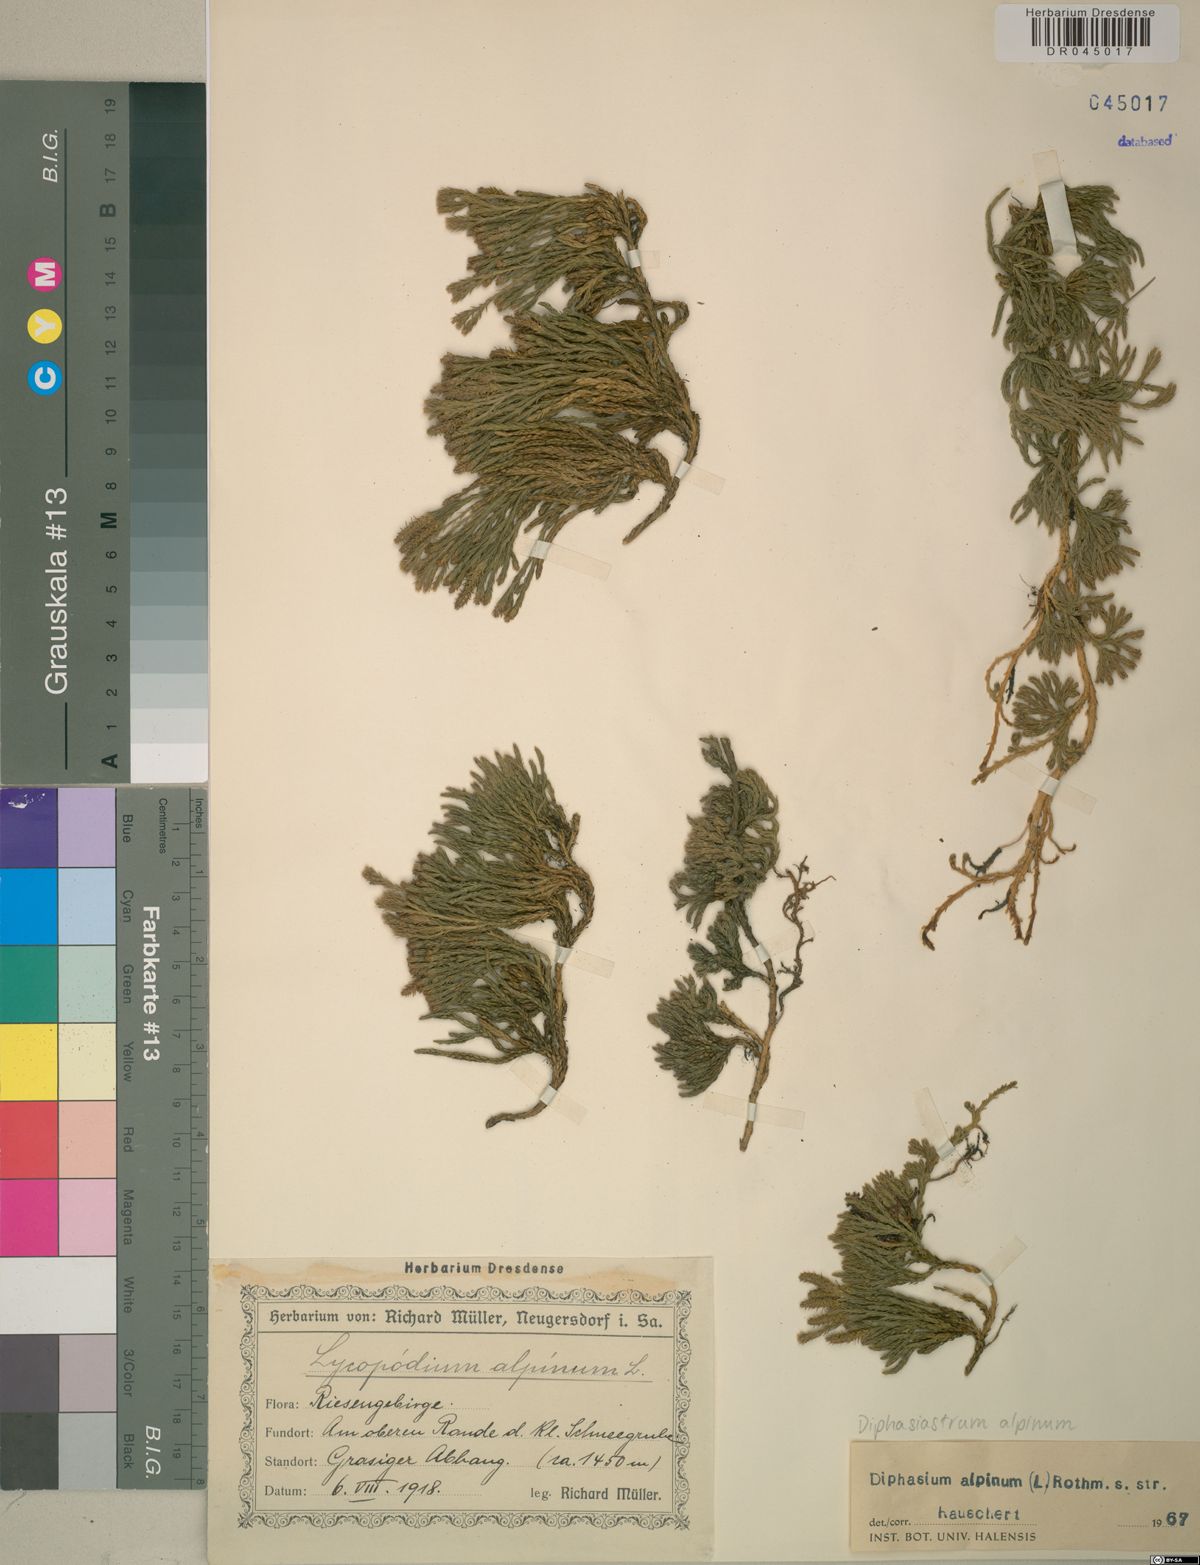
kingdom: Plantae
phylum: Tracheophyta
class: Lycopodiopsida
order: Lycopodiales
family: Lycopodiaceae
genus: Diphasiastrum
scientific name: Diphasiastrum alpinum
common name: Alpine clubmoss
